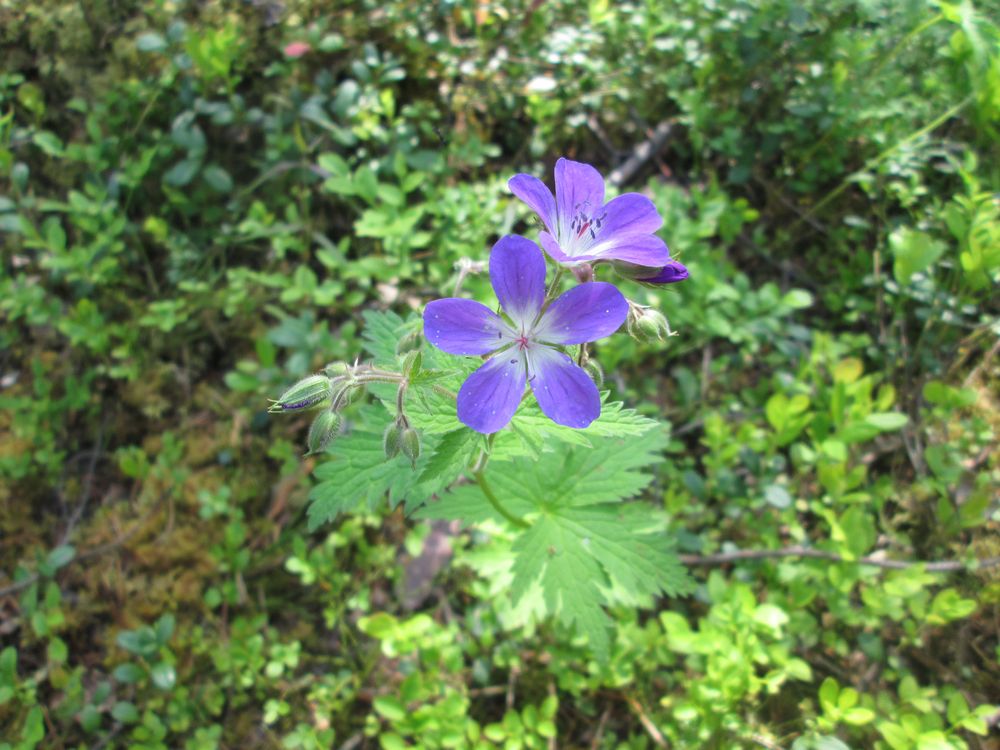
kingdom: Plantae
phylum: Tracheophyta
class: Magnoliopsida
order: Geraniales
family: Geraniaceae
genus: Geranium
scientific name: Geranium sylvaticum
